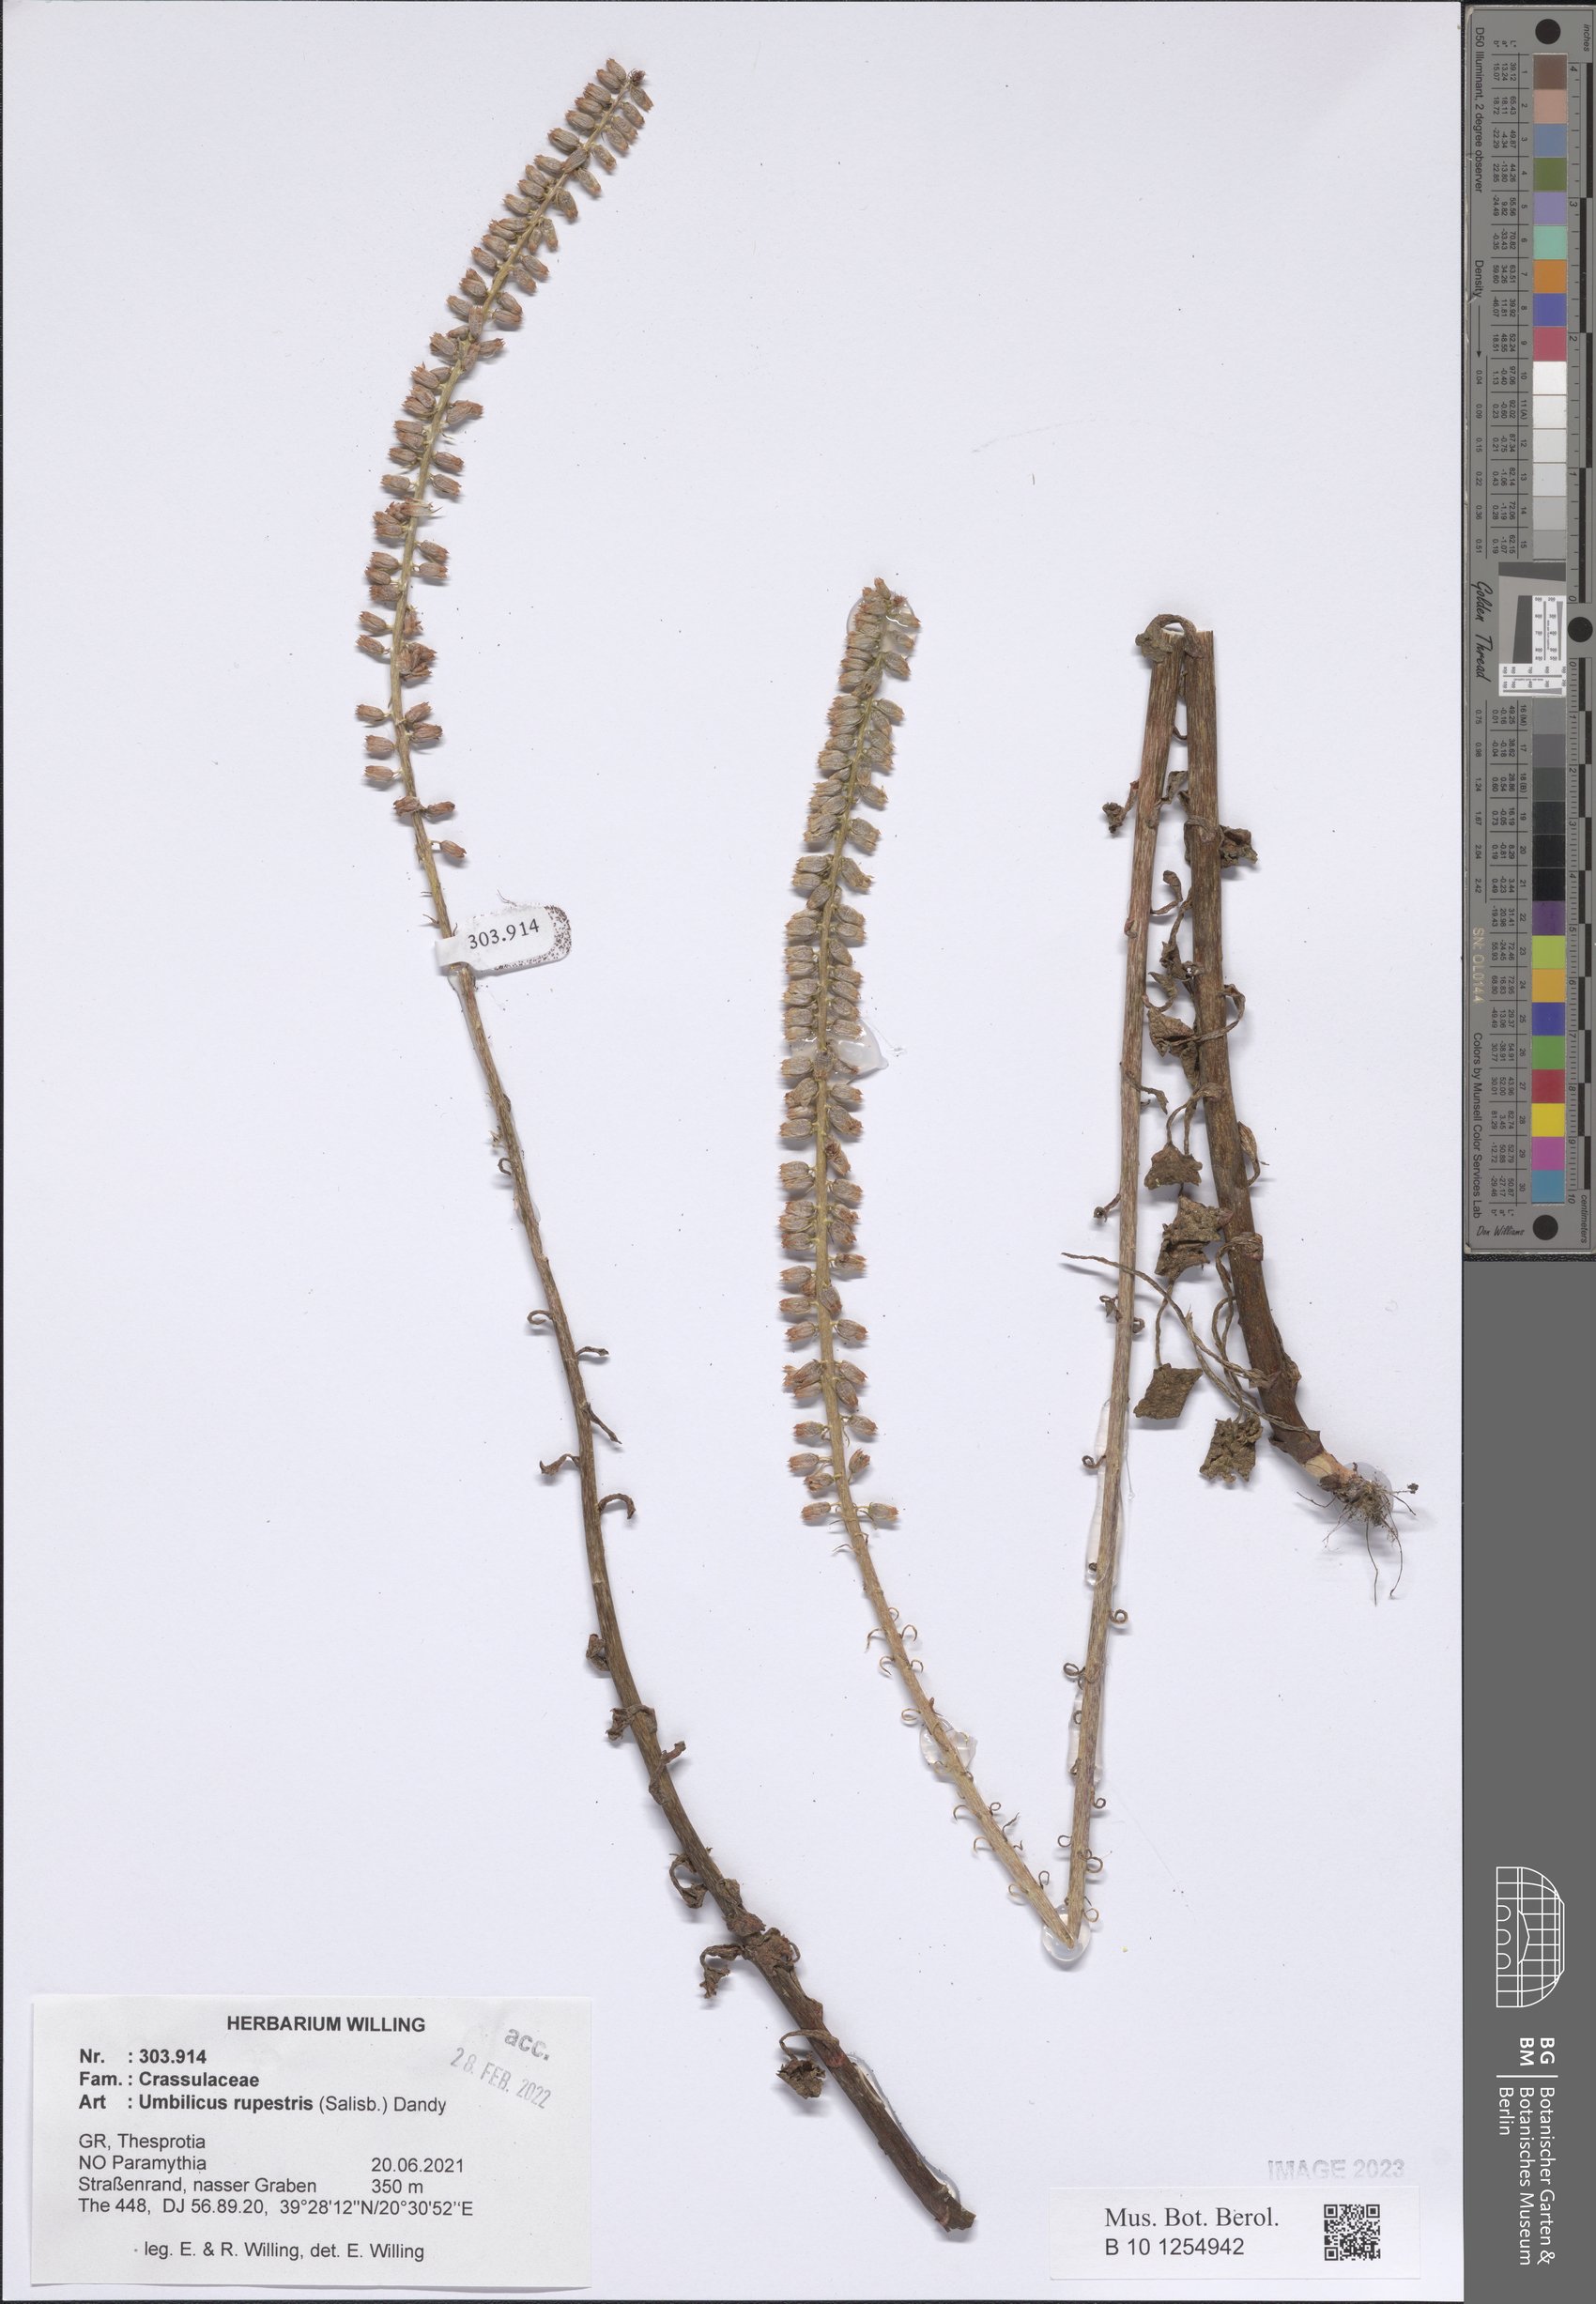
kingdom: Plantae
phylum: Tracheophyta
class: Magnoliopsida
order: Saxifragales
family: Crassulaceae
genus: Umbilicus
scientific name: Umbilicus rupestris
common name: Navelwort
